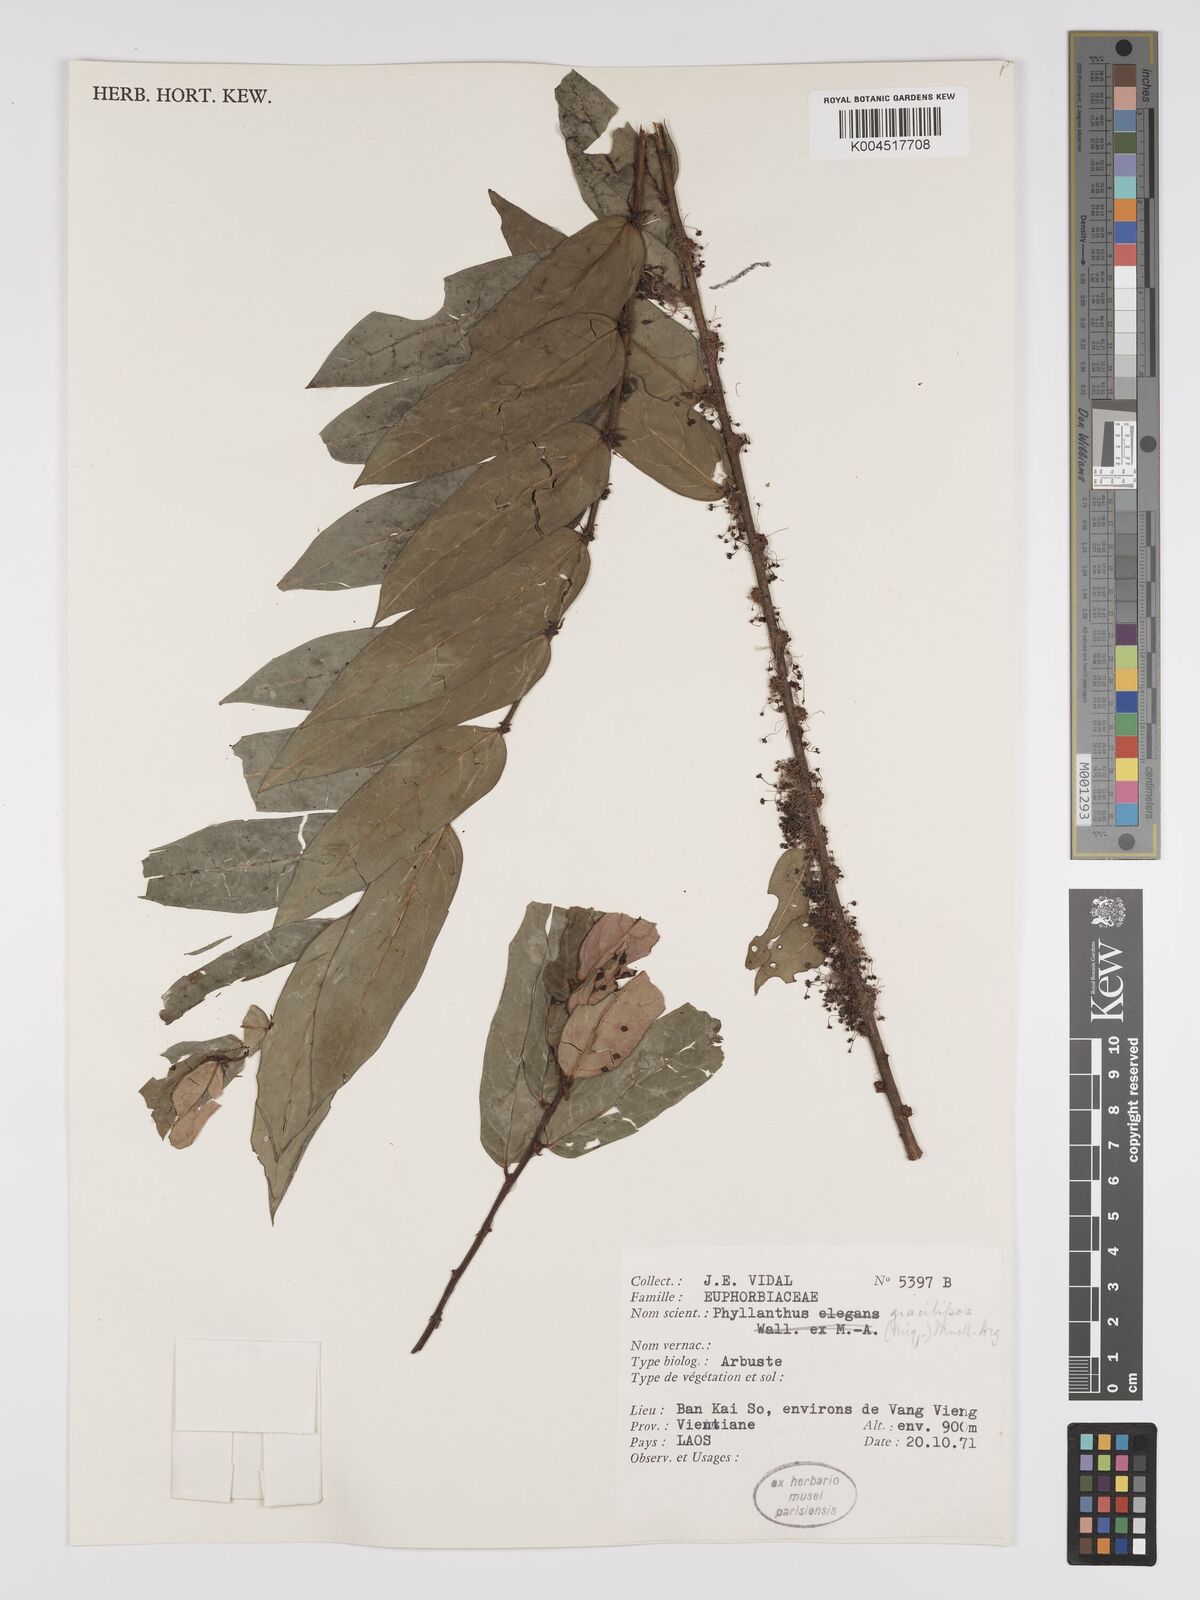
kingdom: Plantae
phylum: Tracheophyta
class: Magnoliopsida
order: Malpighiales
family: Phyllanthaceae
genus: Phyllanthus
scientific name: Phyllanthus
